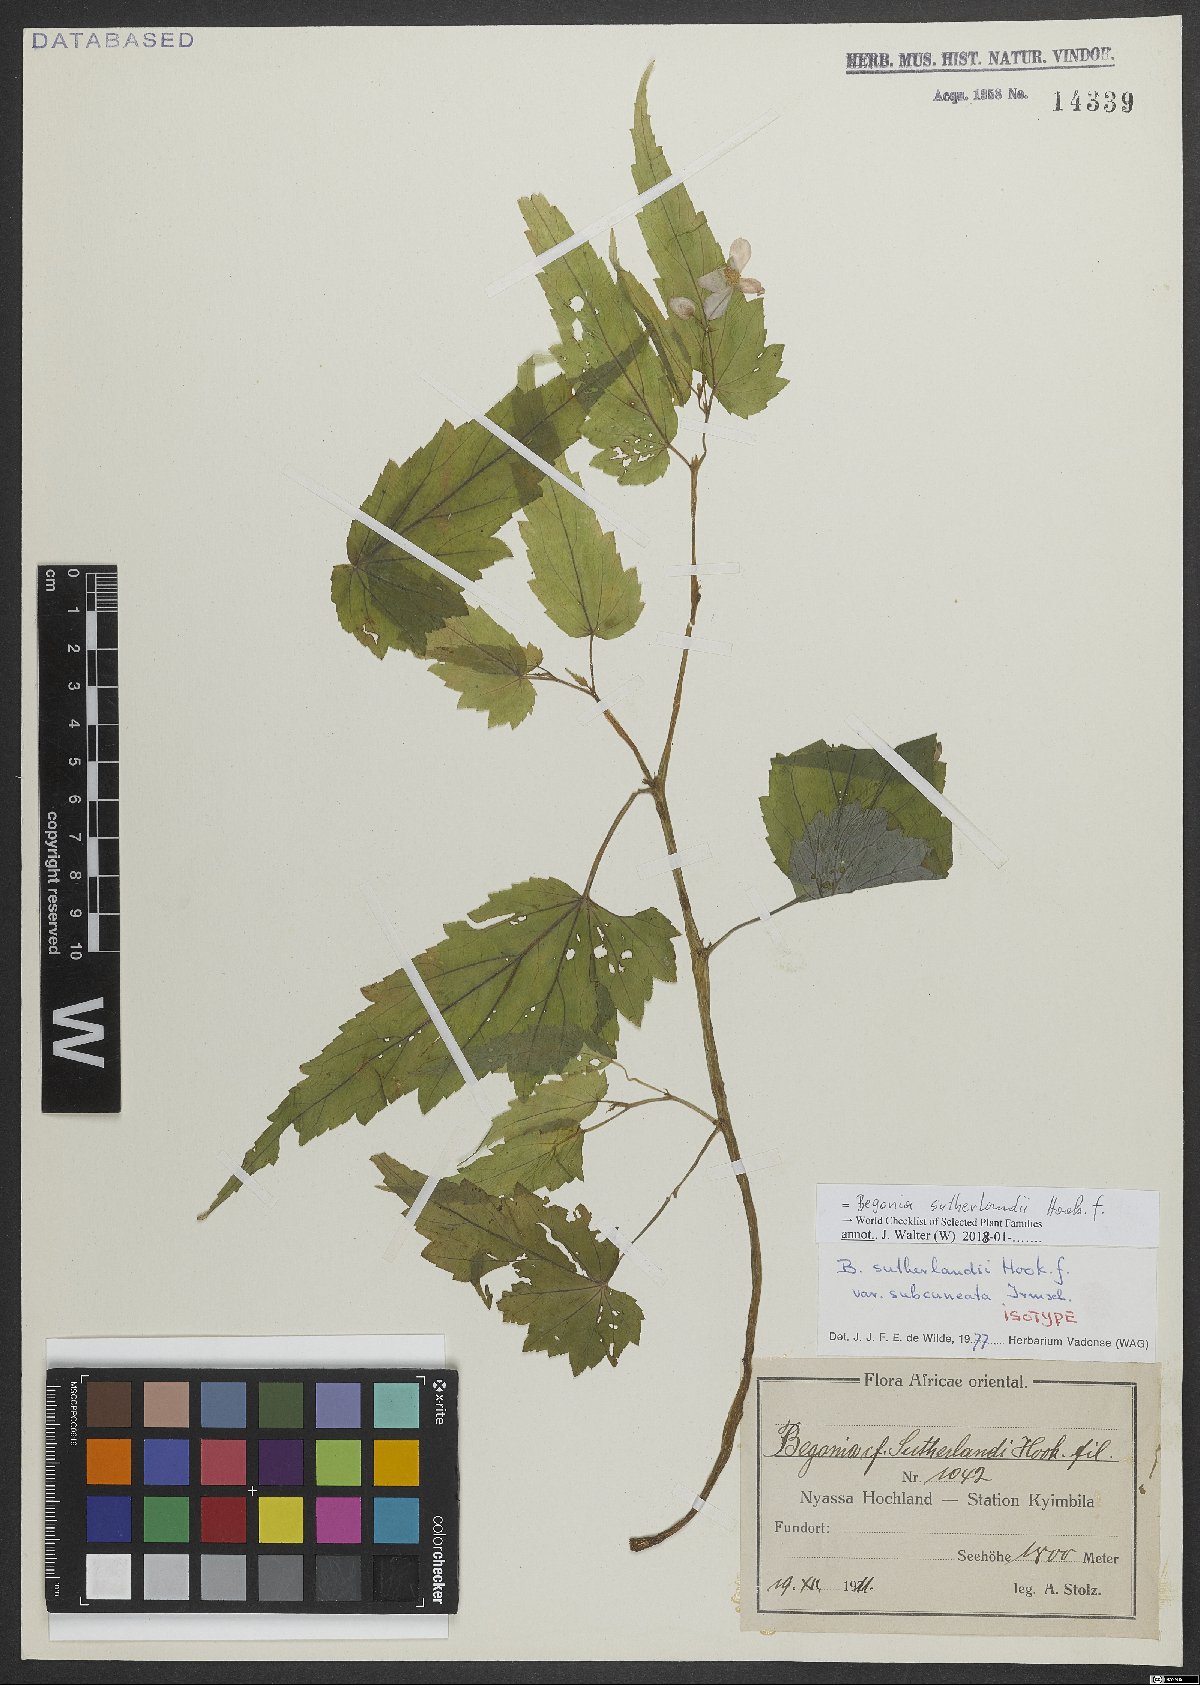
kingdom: Plantae
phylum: Tracheophyta
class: Magnoliopsida
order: Cucurbitales
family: Begoniaceae
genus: Begonia
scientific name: Begonia sutherlandii
